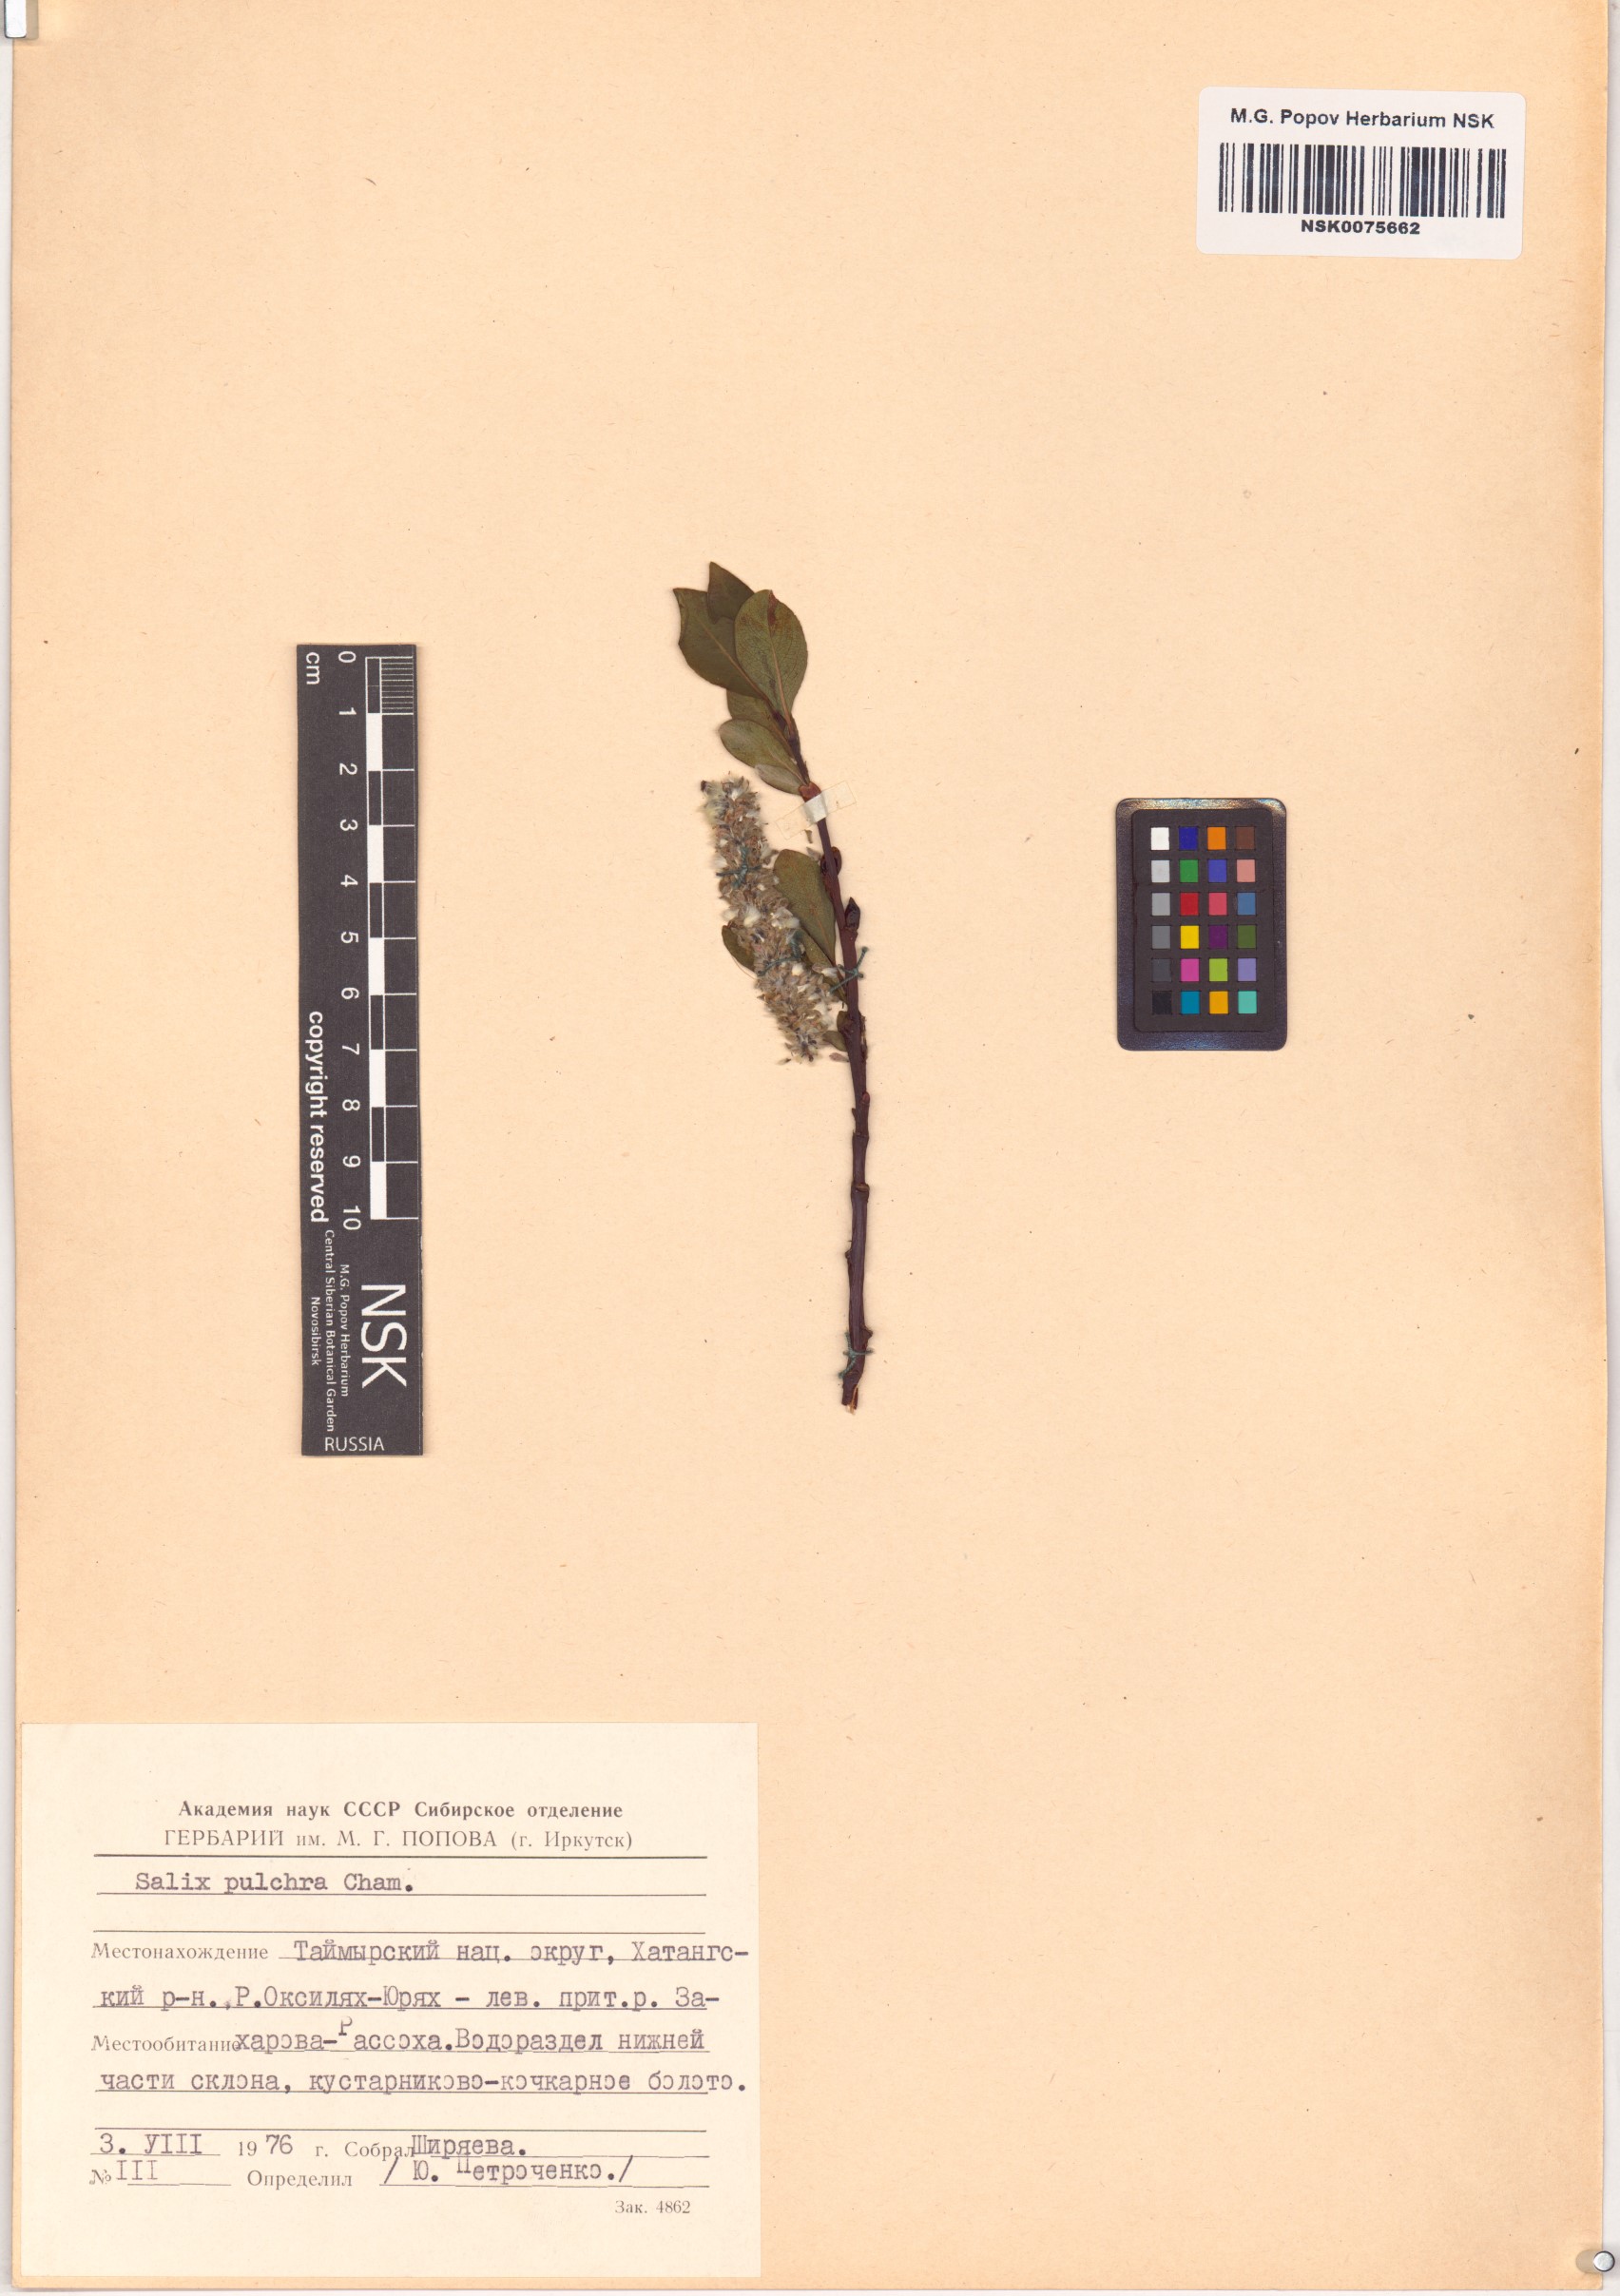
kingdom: Plantae
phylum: Tracheophyta
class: Magnoliopsida
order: Malpighiales
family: Salicaceae
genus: Salix
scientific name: Salix pulchra
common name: Diamond-leaved willow
